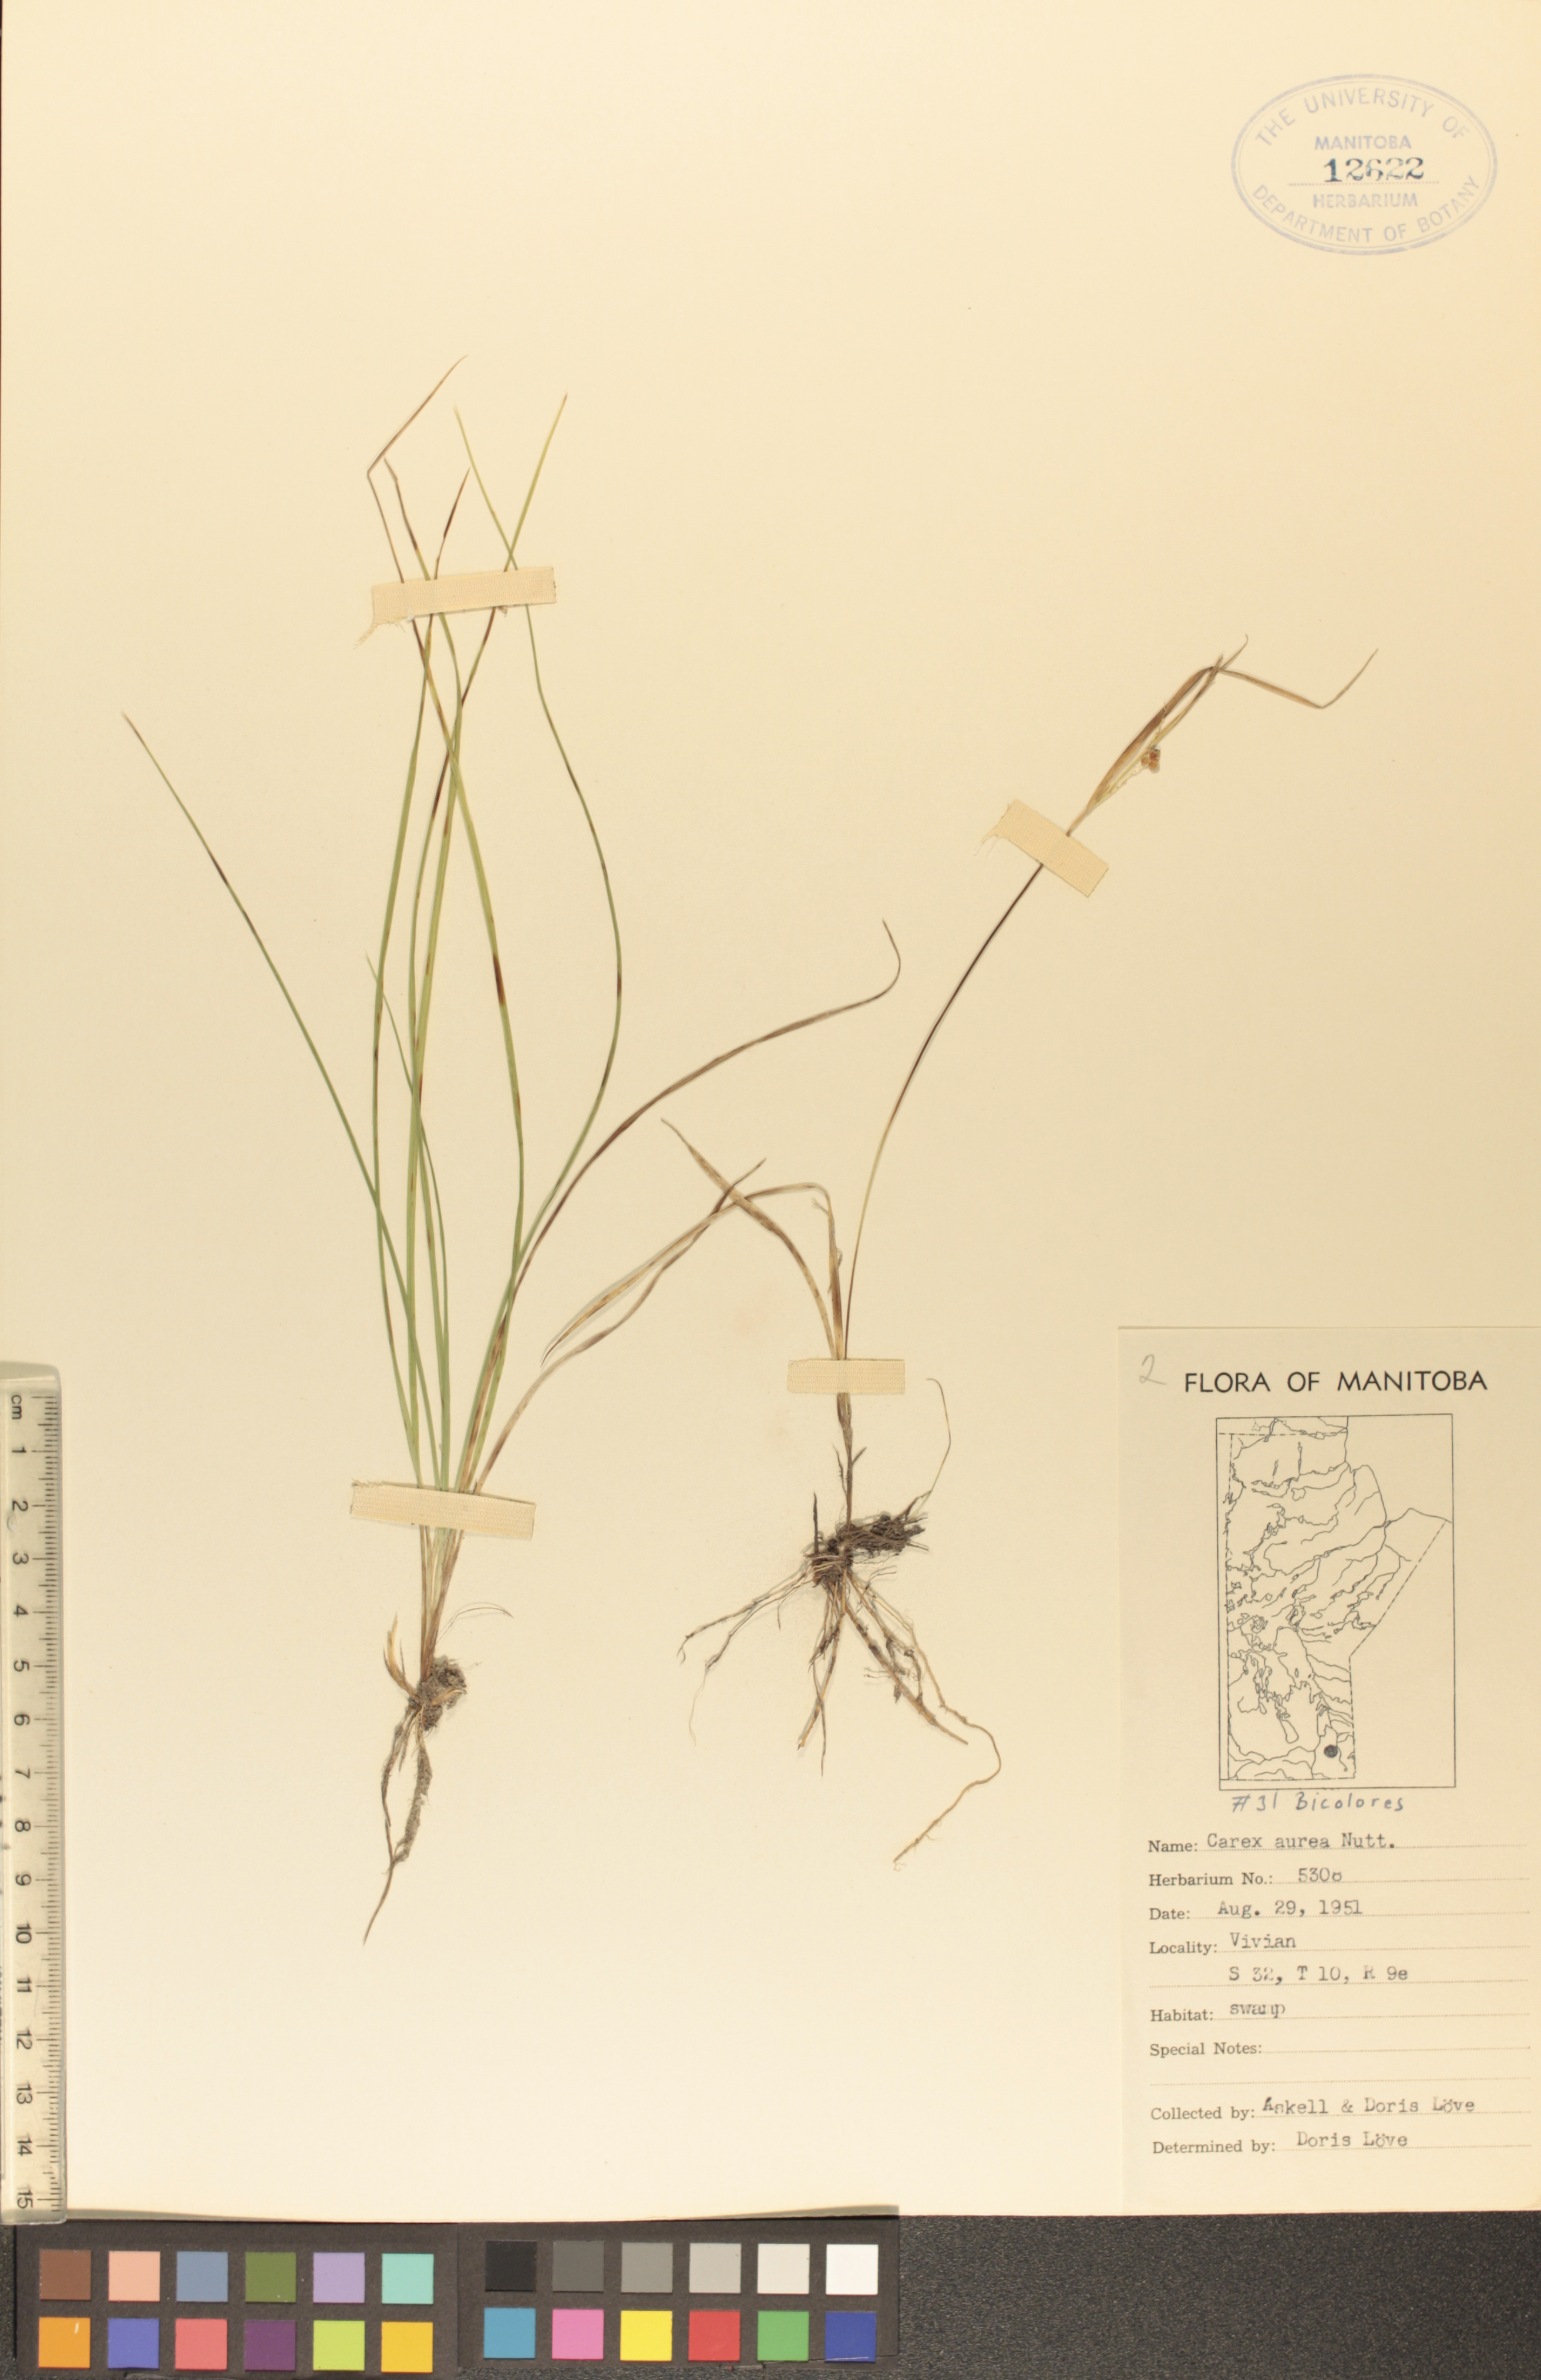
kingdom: Plantae
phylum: Tracheophyta
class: Liliopsida
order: Poales
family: Cyperaceae
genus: Carex
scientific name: Carex aurea
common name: Golden sedge
